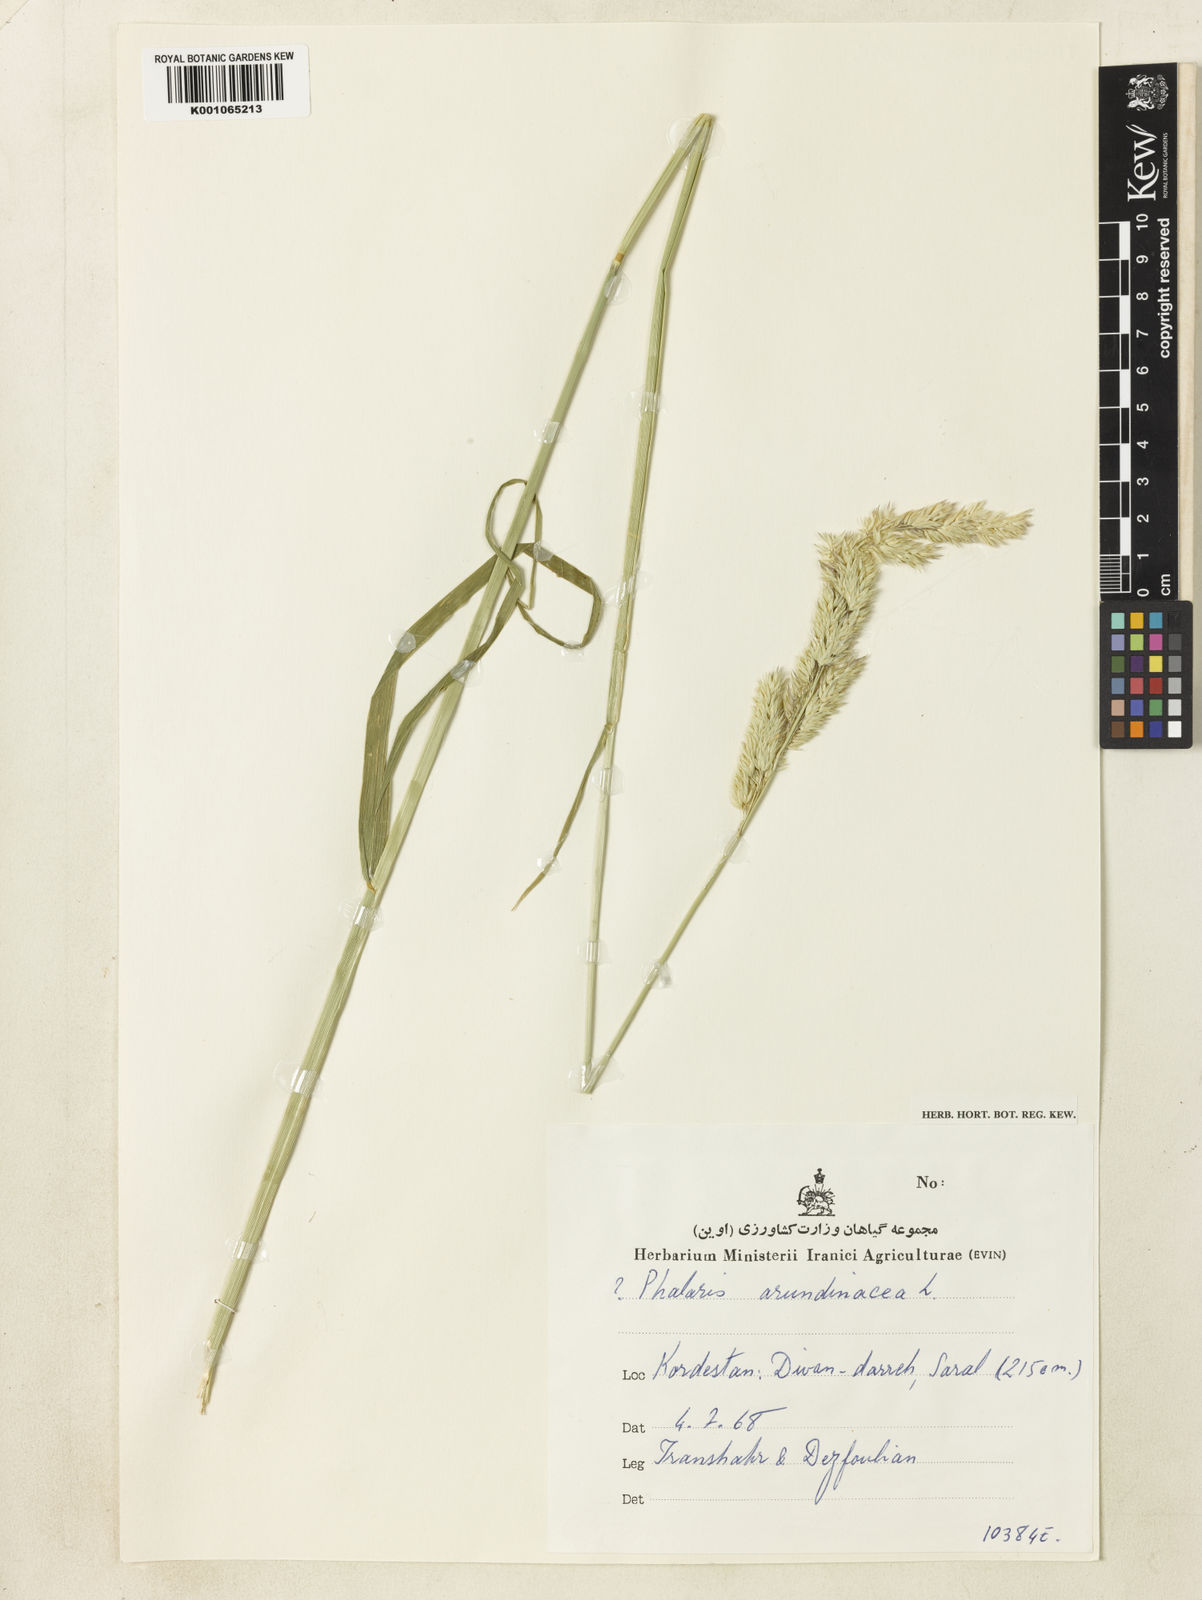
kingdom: Plantae
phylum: Tracheophyta
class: Liliopsida
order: Poales
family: Poaceae
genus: Phalaris
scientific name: Phalaris arundinacea
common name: Reed canary-grass
